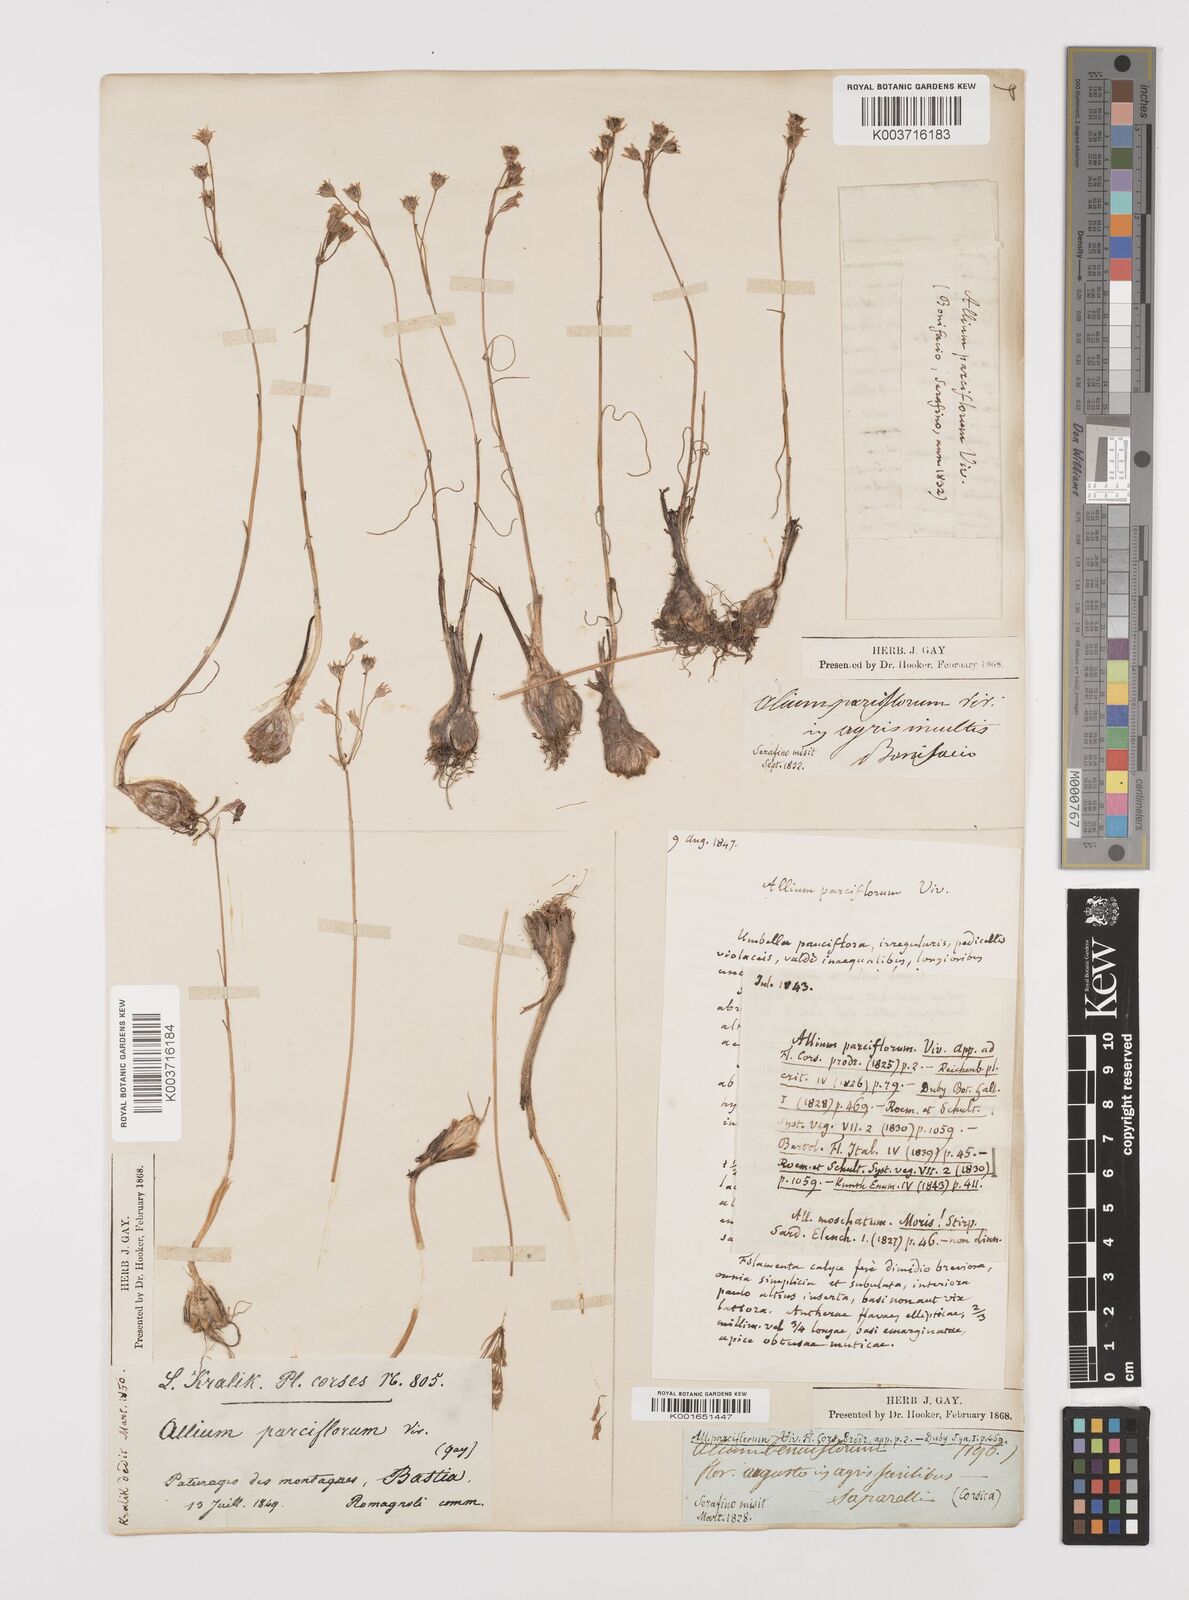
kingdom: Plantae
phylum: Tracheophyta
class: Liliopsida
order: Asparagales
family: Amaryllidaceae
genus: Allium
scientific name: Allium parciflorum
